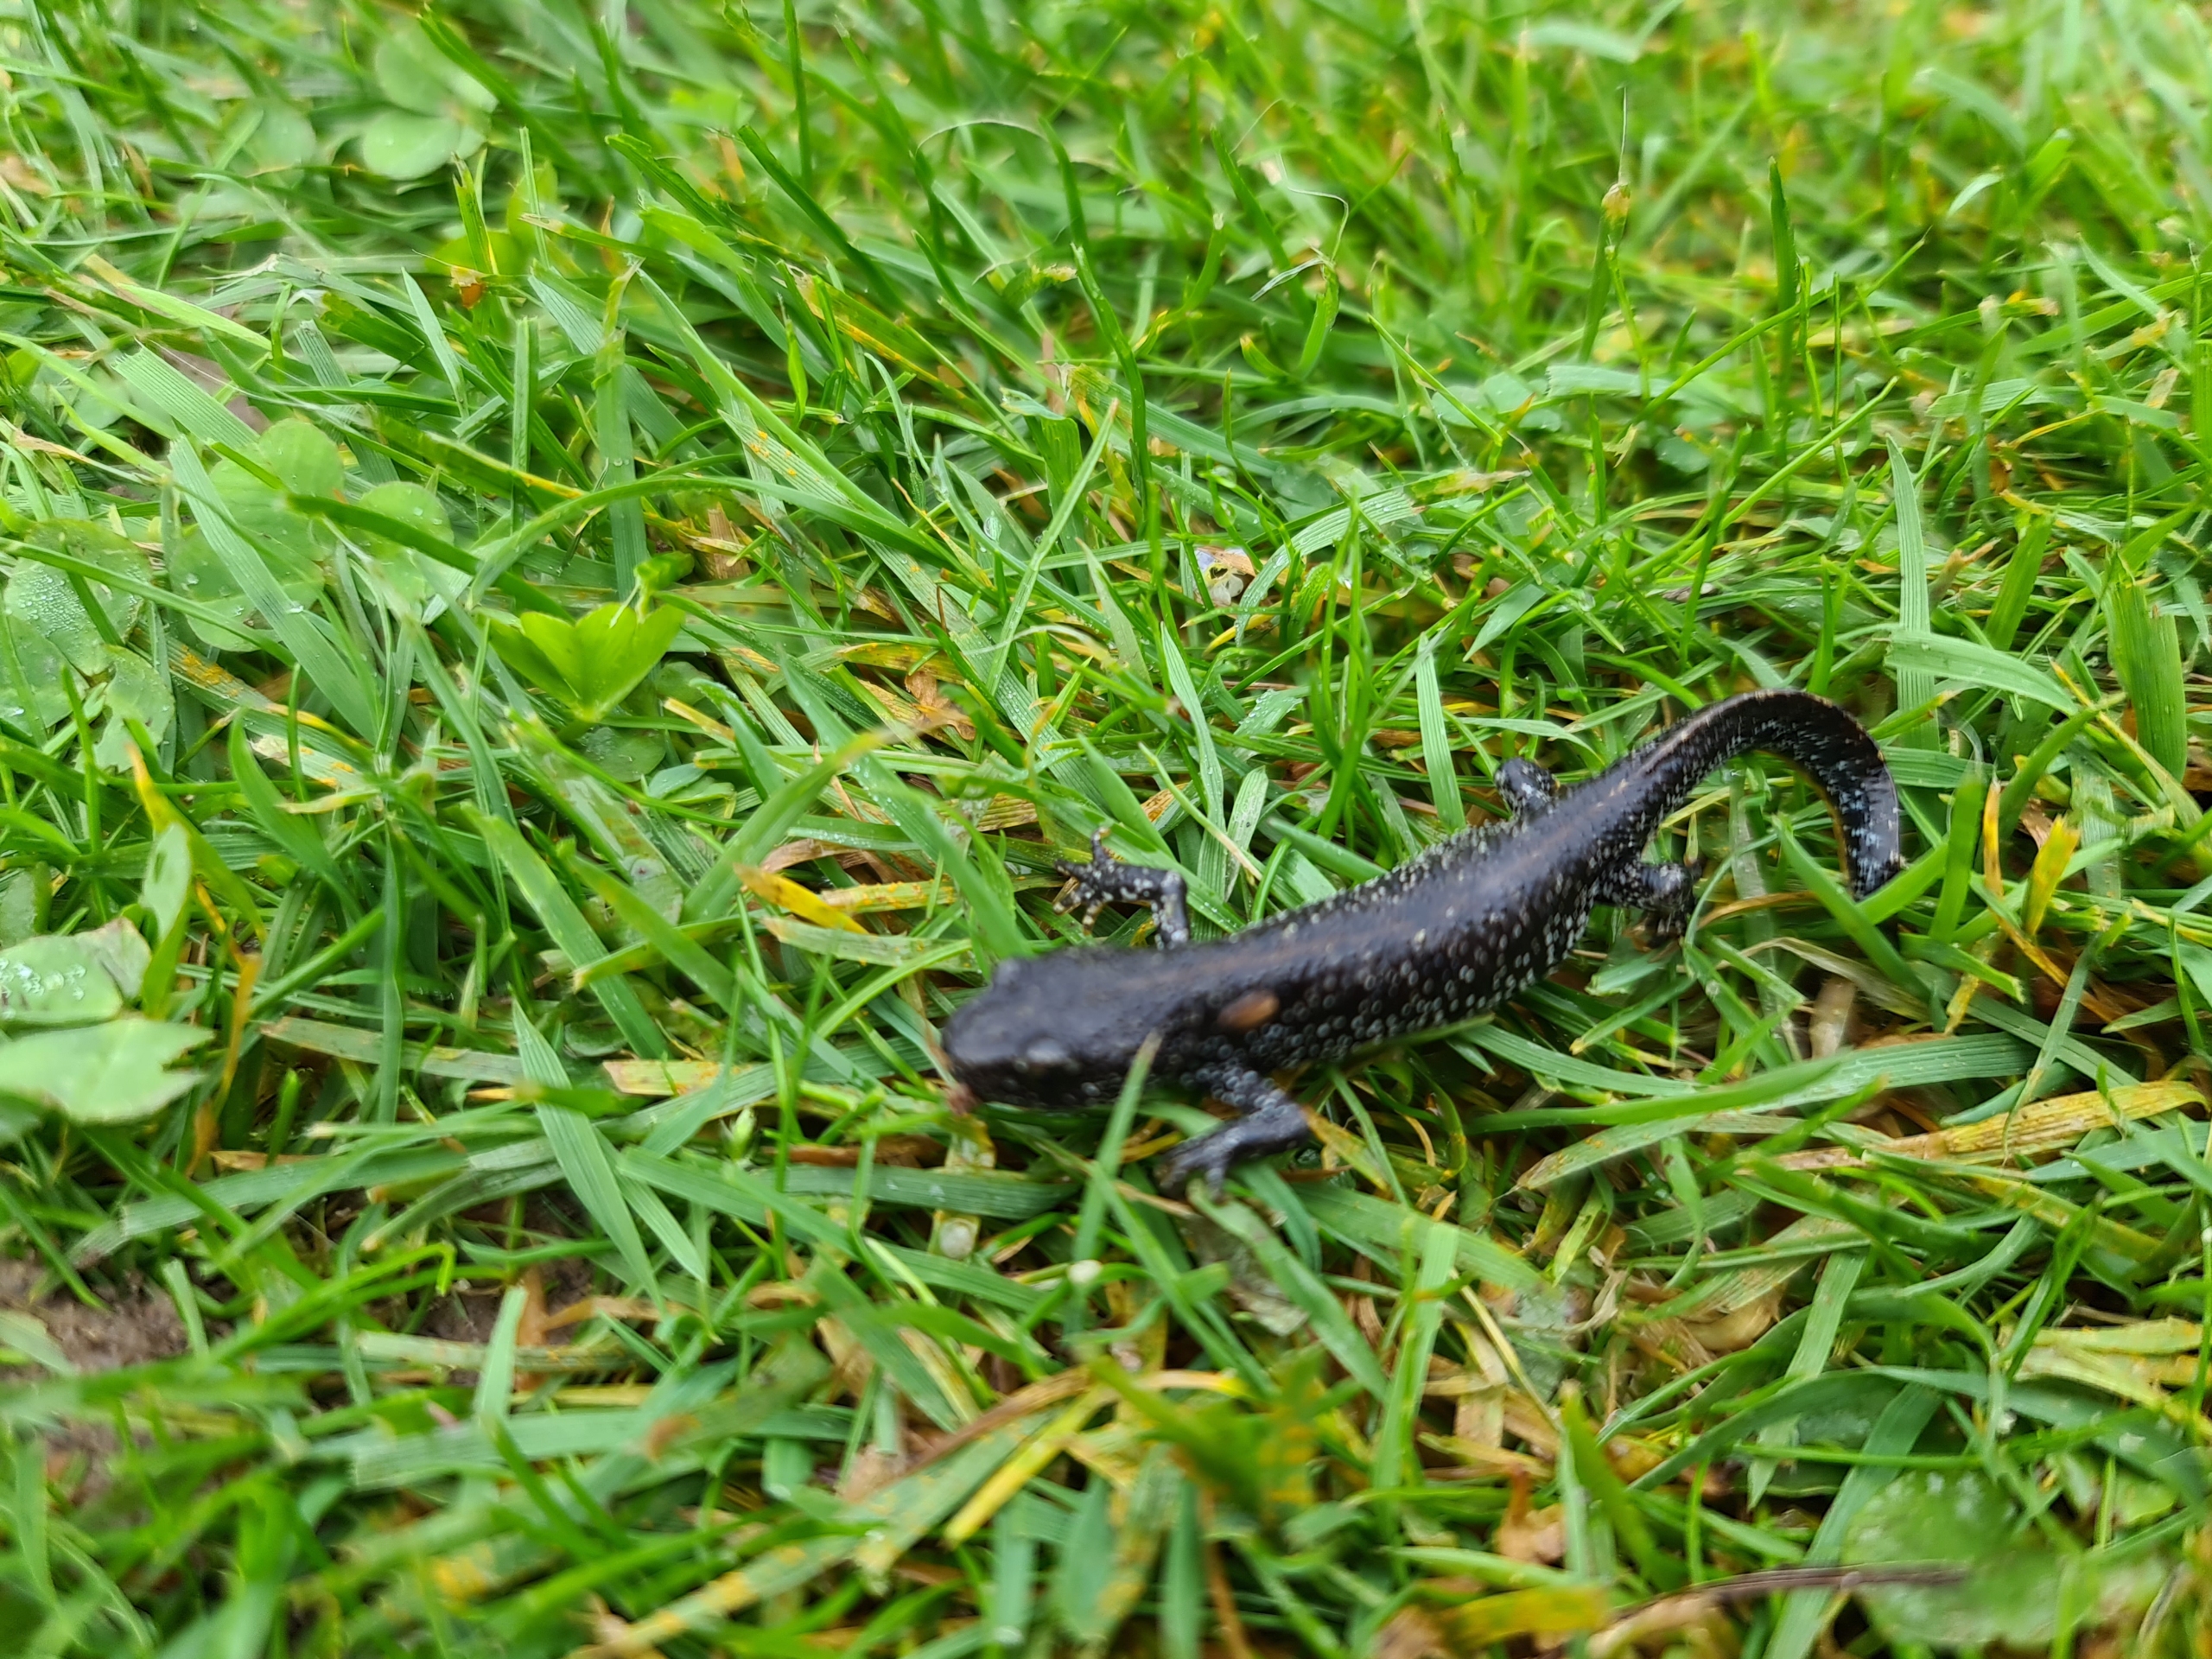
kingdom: Animalia
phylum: Chordata
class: Amphibia
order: Caudata
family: Salamandridae
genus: Triturus
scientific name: Triturus cristatus
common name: Stor vandsalamander
